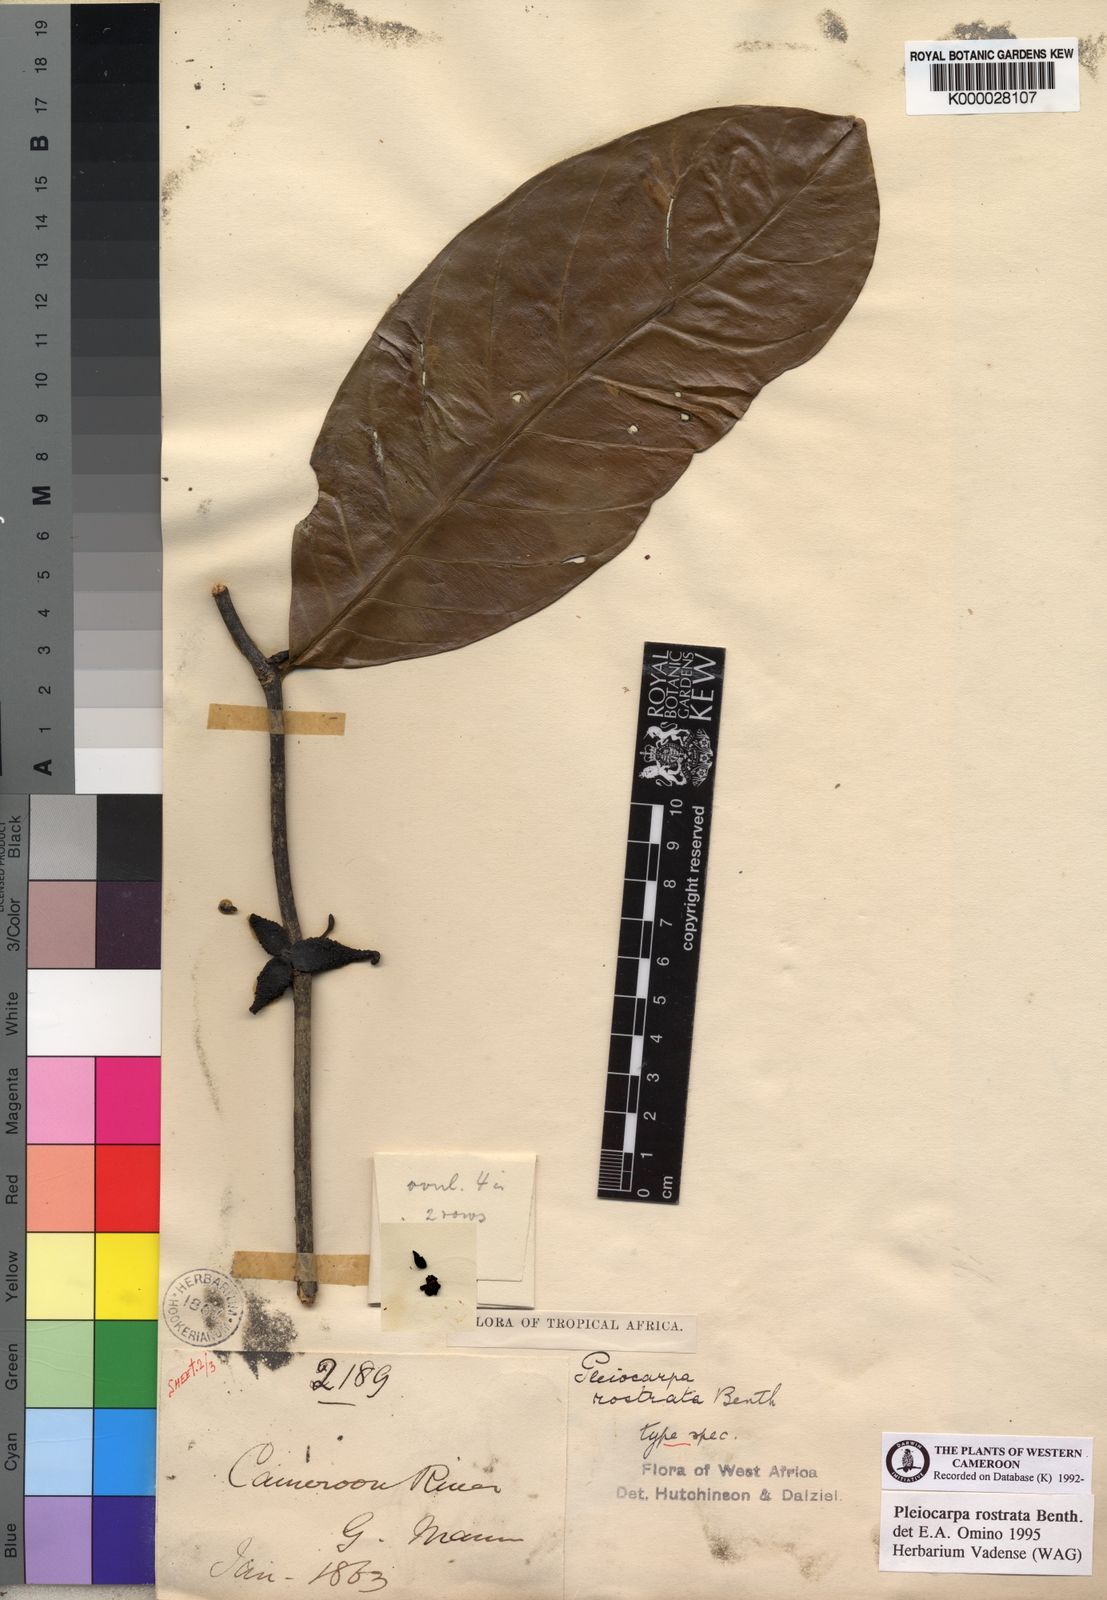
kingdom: Plantae
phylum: Tracheophyta
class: Magnoliopsida
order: Gentianales
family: Apocynaceae
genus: Pleiocarpa
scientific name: Pleiocarpa rostrata
